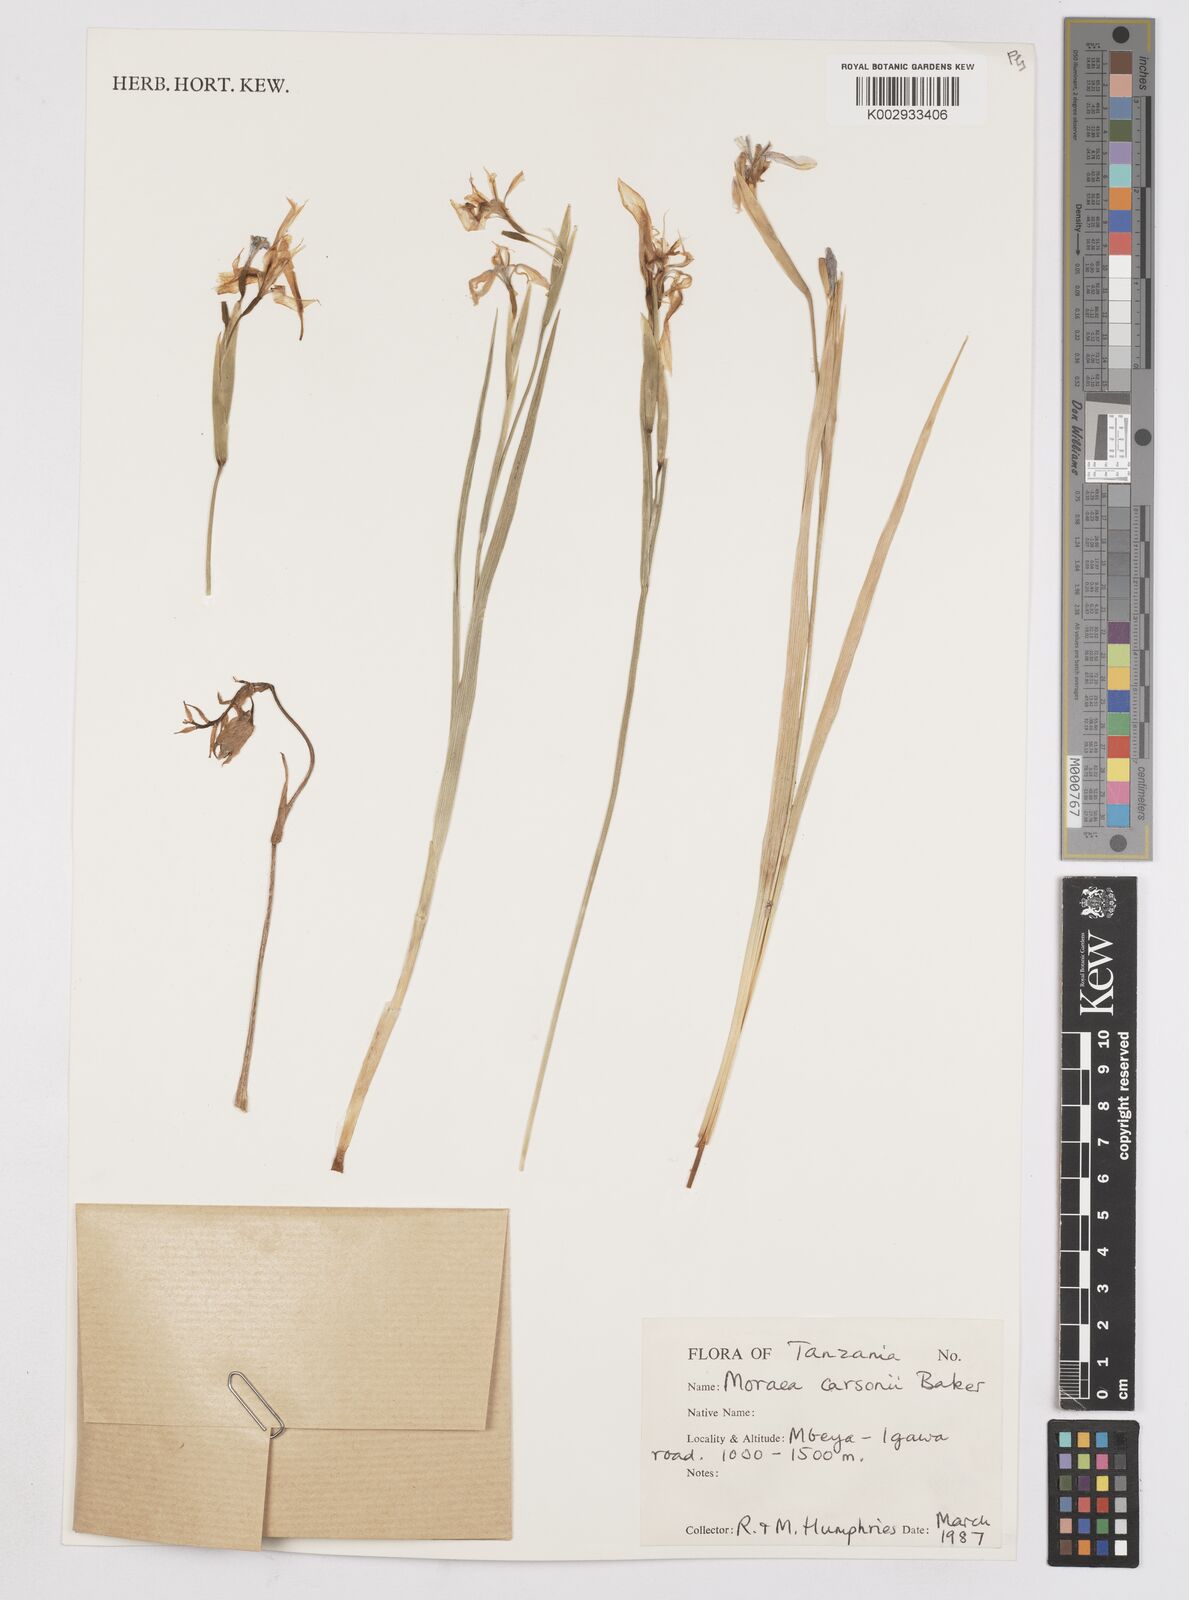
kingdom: Plantae
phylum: Tracheophyta
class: Liliopsida
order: Asparagales
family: Iridaceae
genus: Moraea
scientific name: Moraea carsonii
